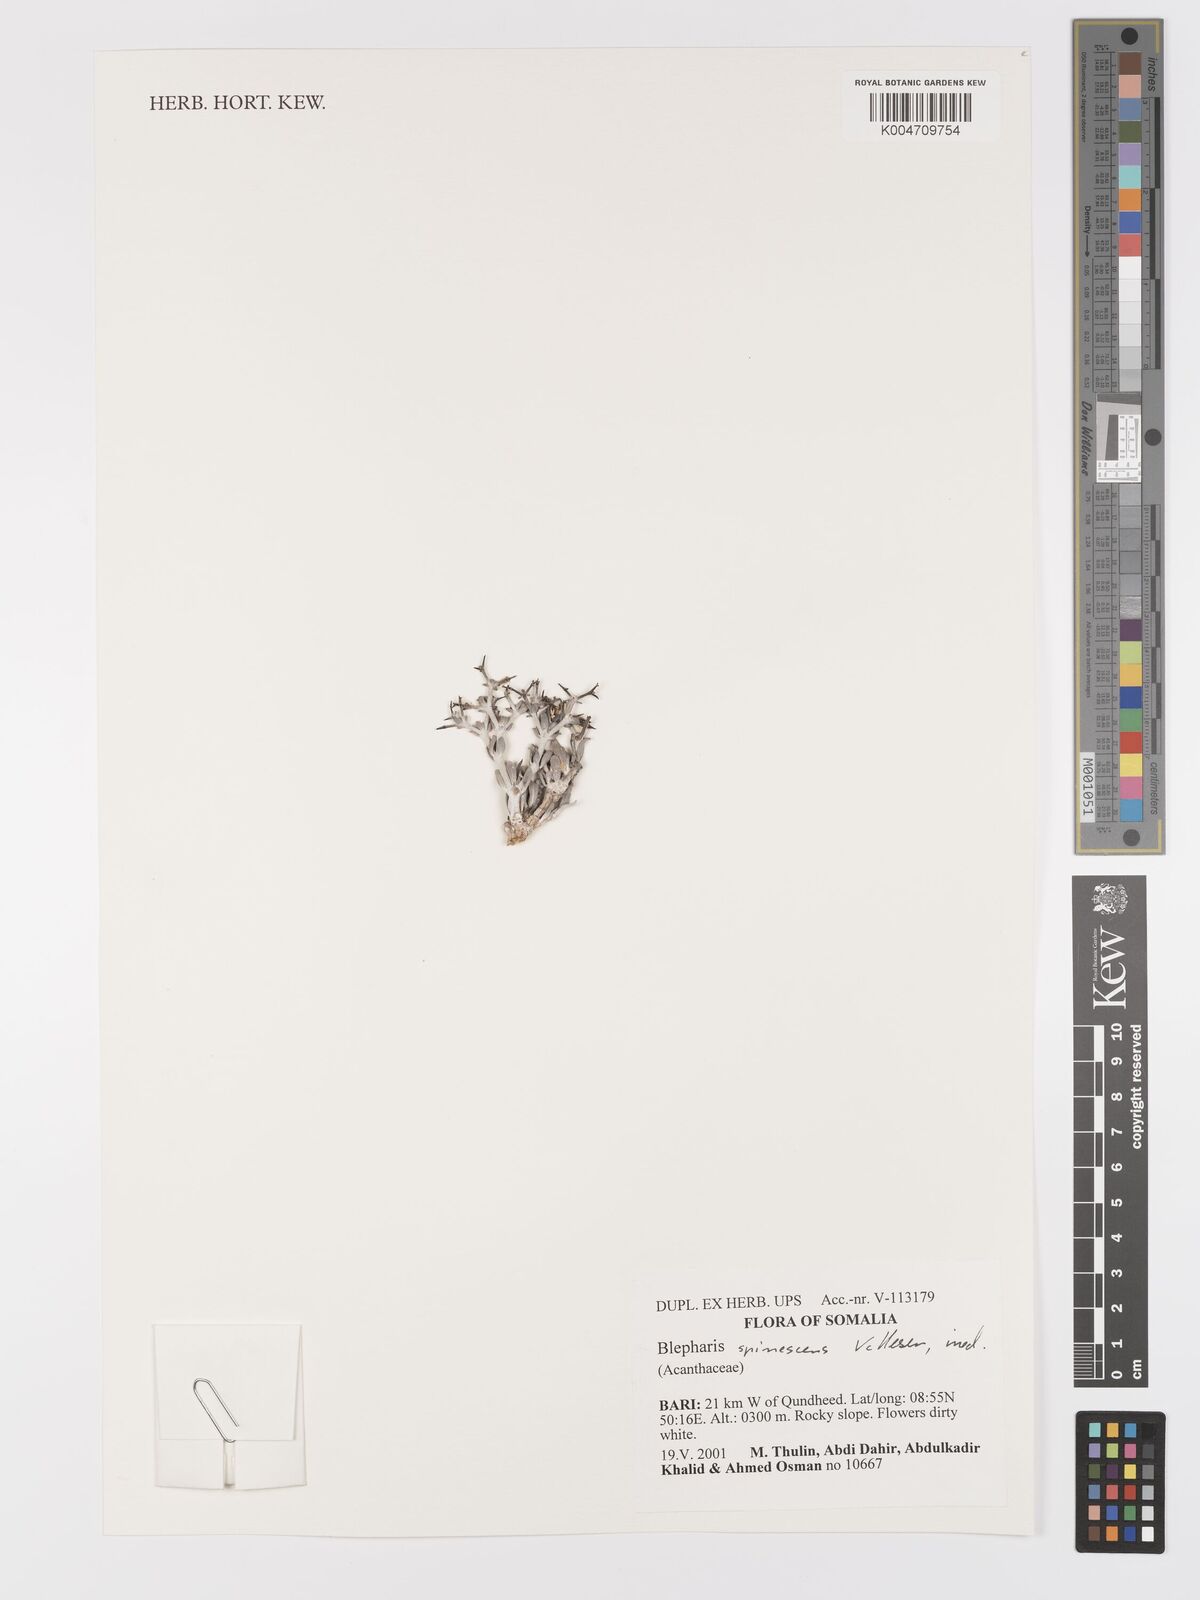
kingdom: Plantae
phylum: Tracheophyta
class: Magnoliopsida
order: Lamiales
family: Acanthaceae
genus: Blepharis
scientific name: Blepharis spinescens
